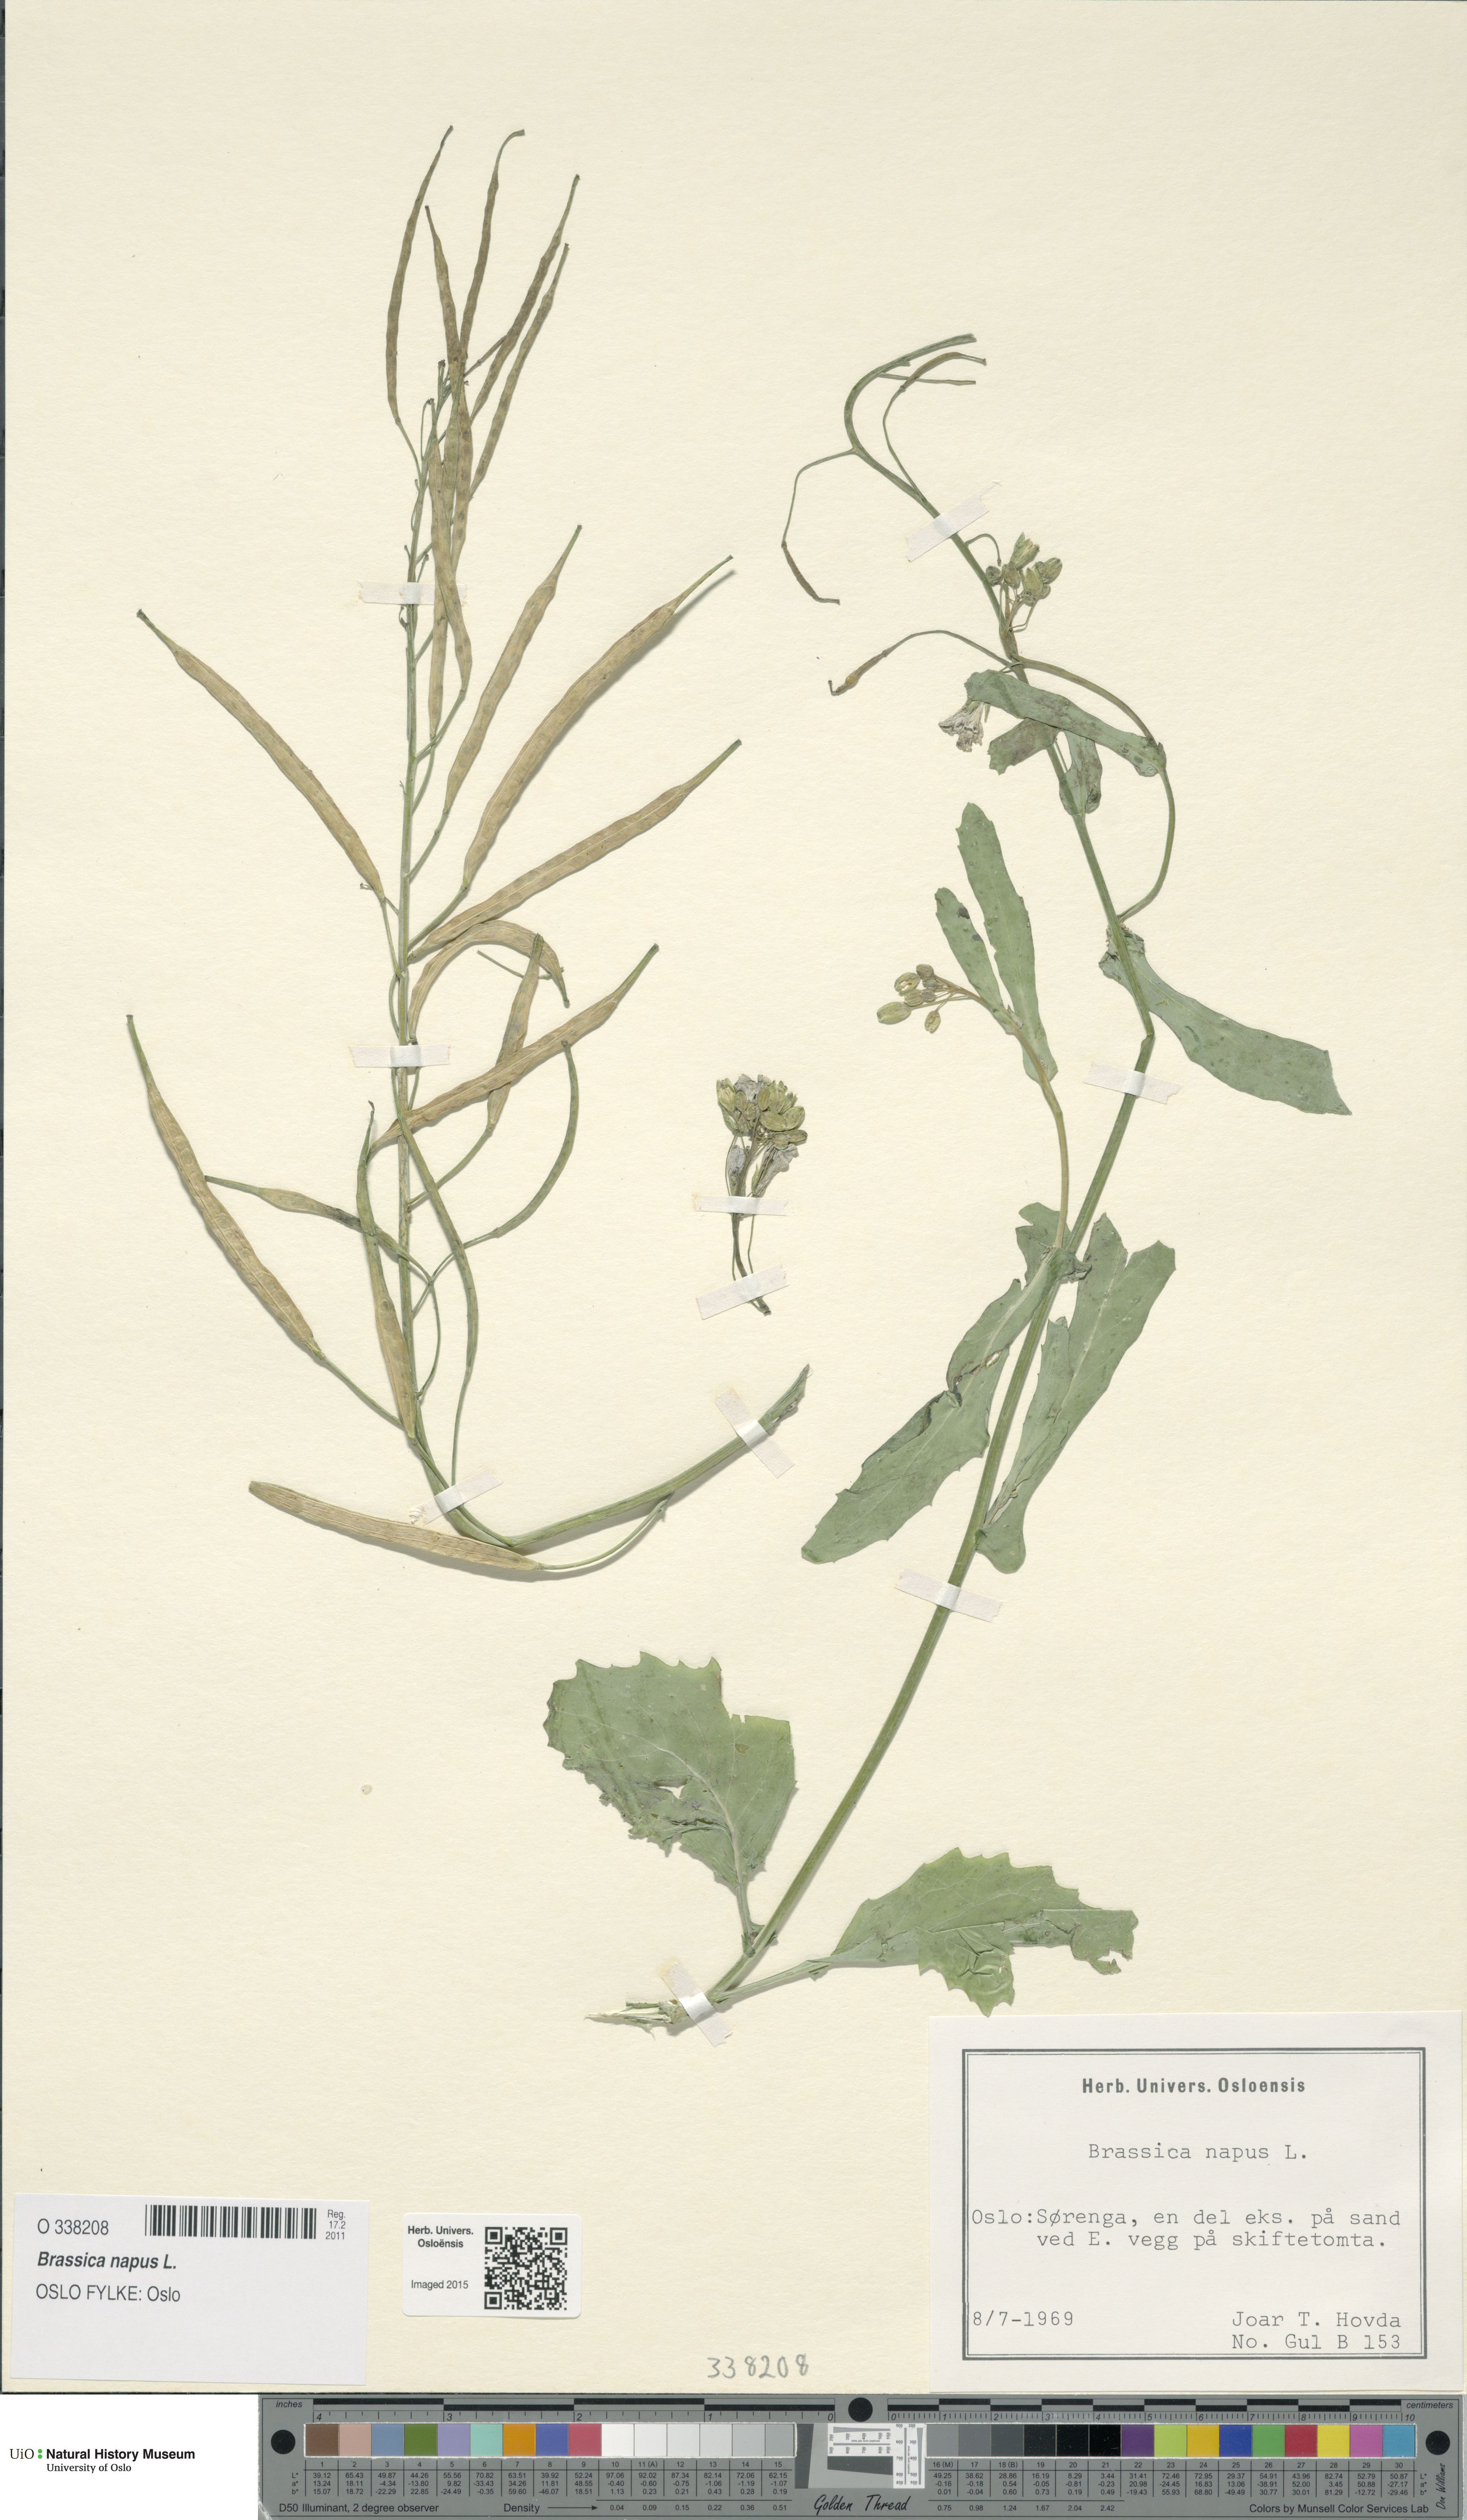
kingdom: Plantae
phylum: Tracheophyta
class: Magnoliopsida
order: Brassicales
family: Brassicaceae
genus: Brassica
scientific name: Brassica napus
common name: Rape
